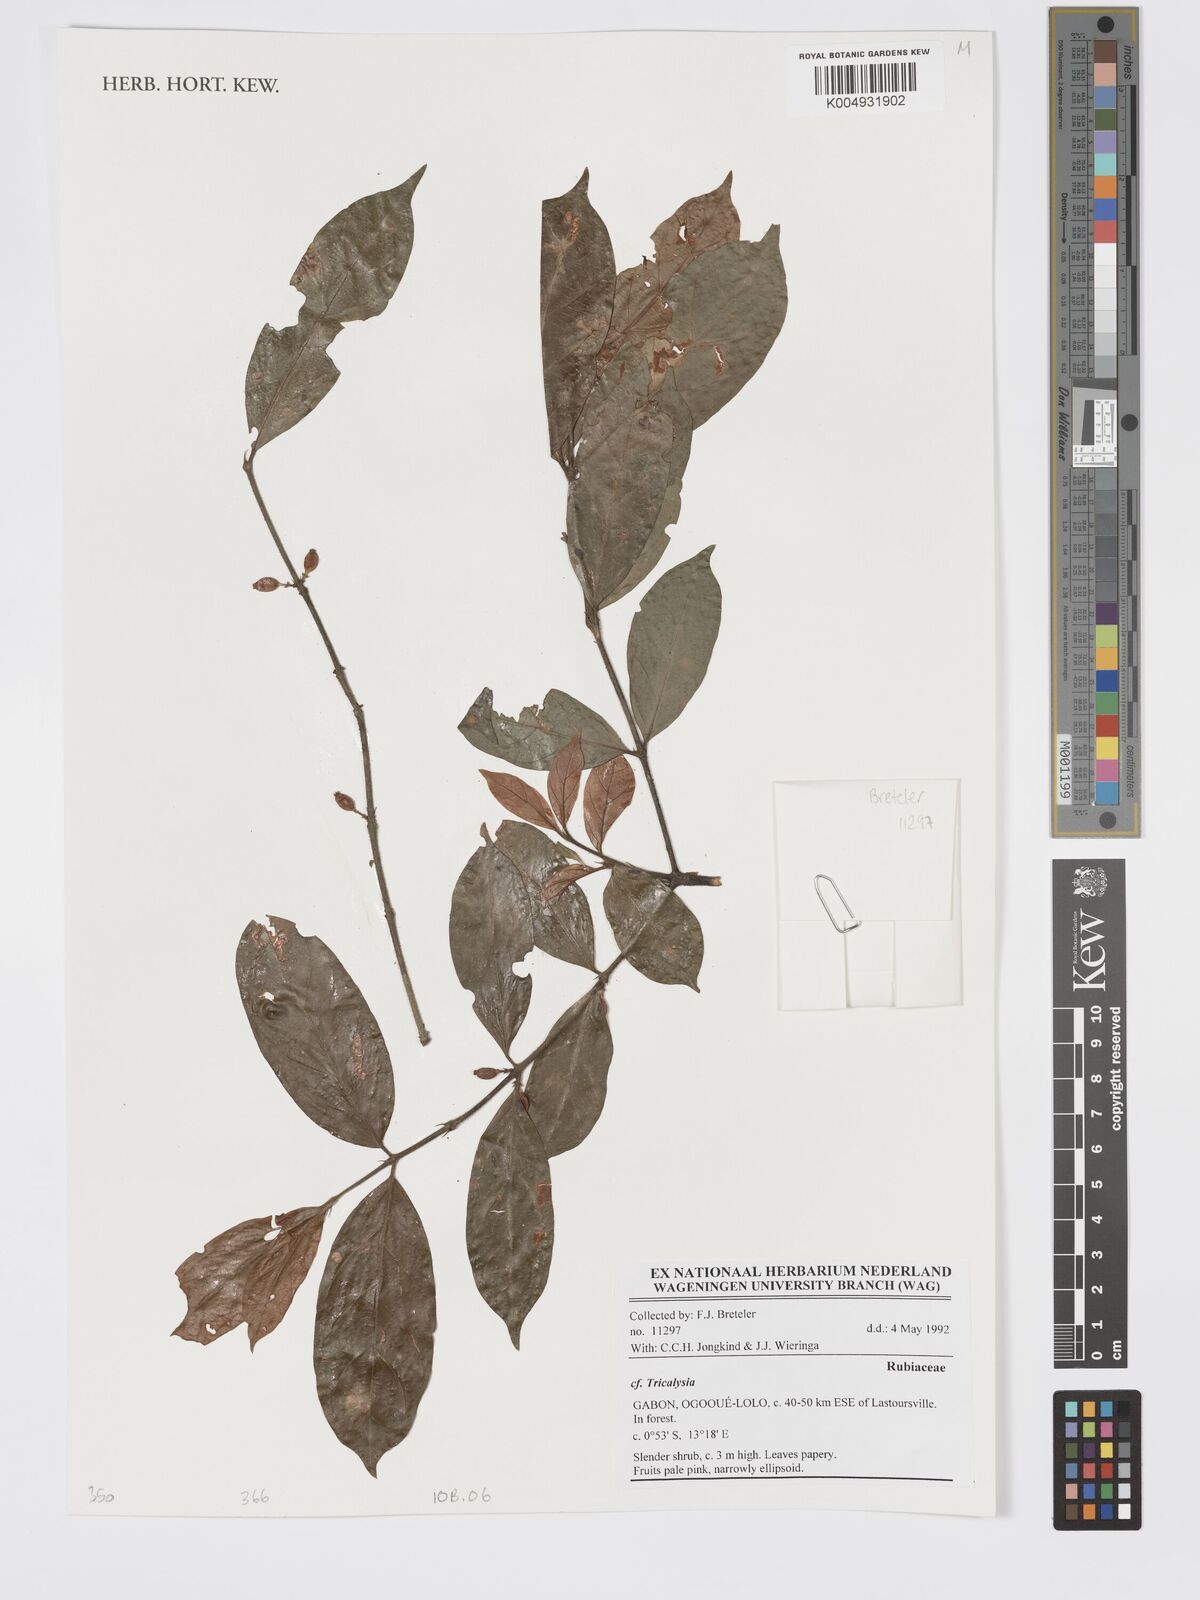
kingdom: Plantae
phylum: Tracheophyta
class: Magnoliopsida
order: Gentianales
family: Rubiaceae
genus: Tricalysia
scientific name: Tricalysia
